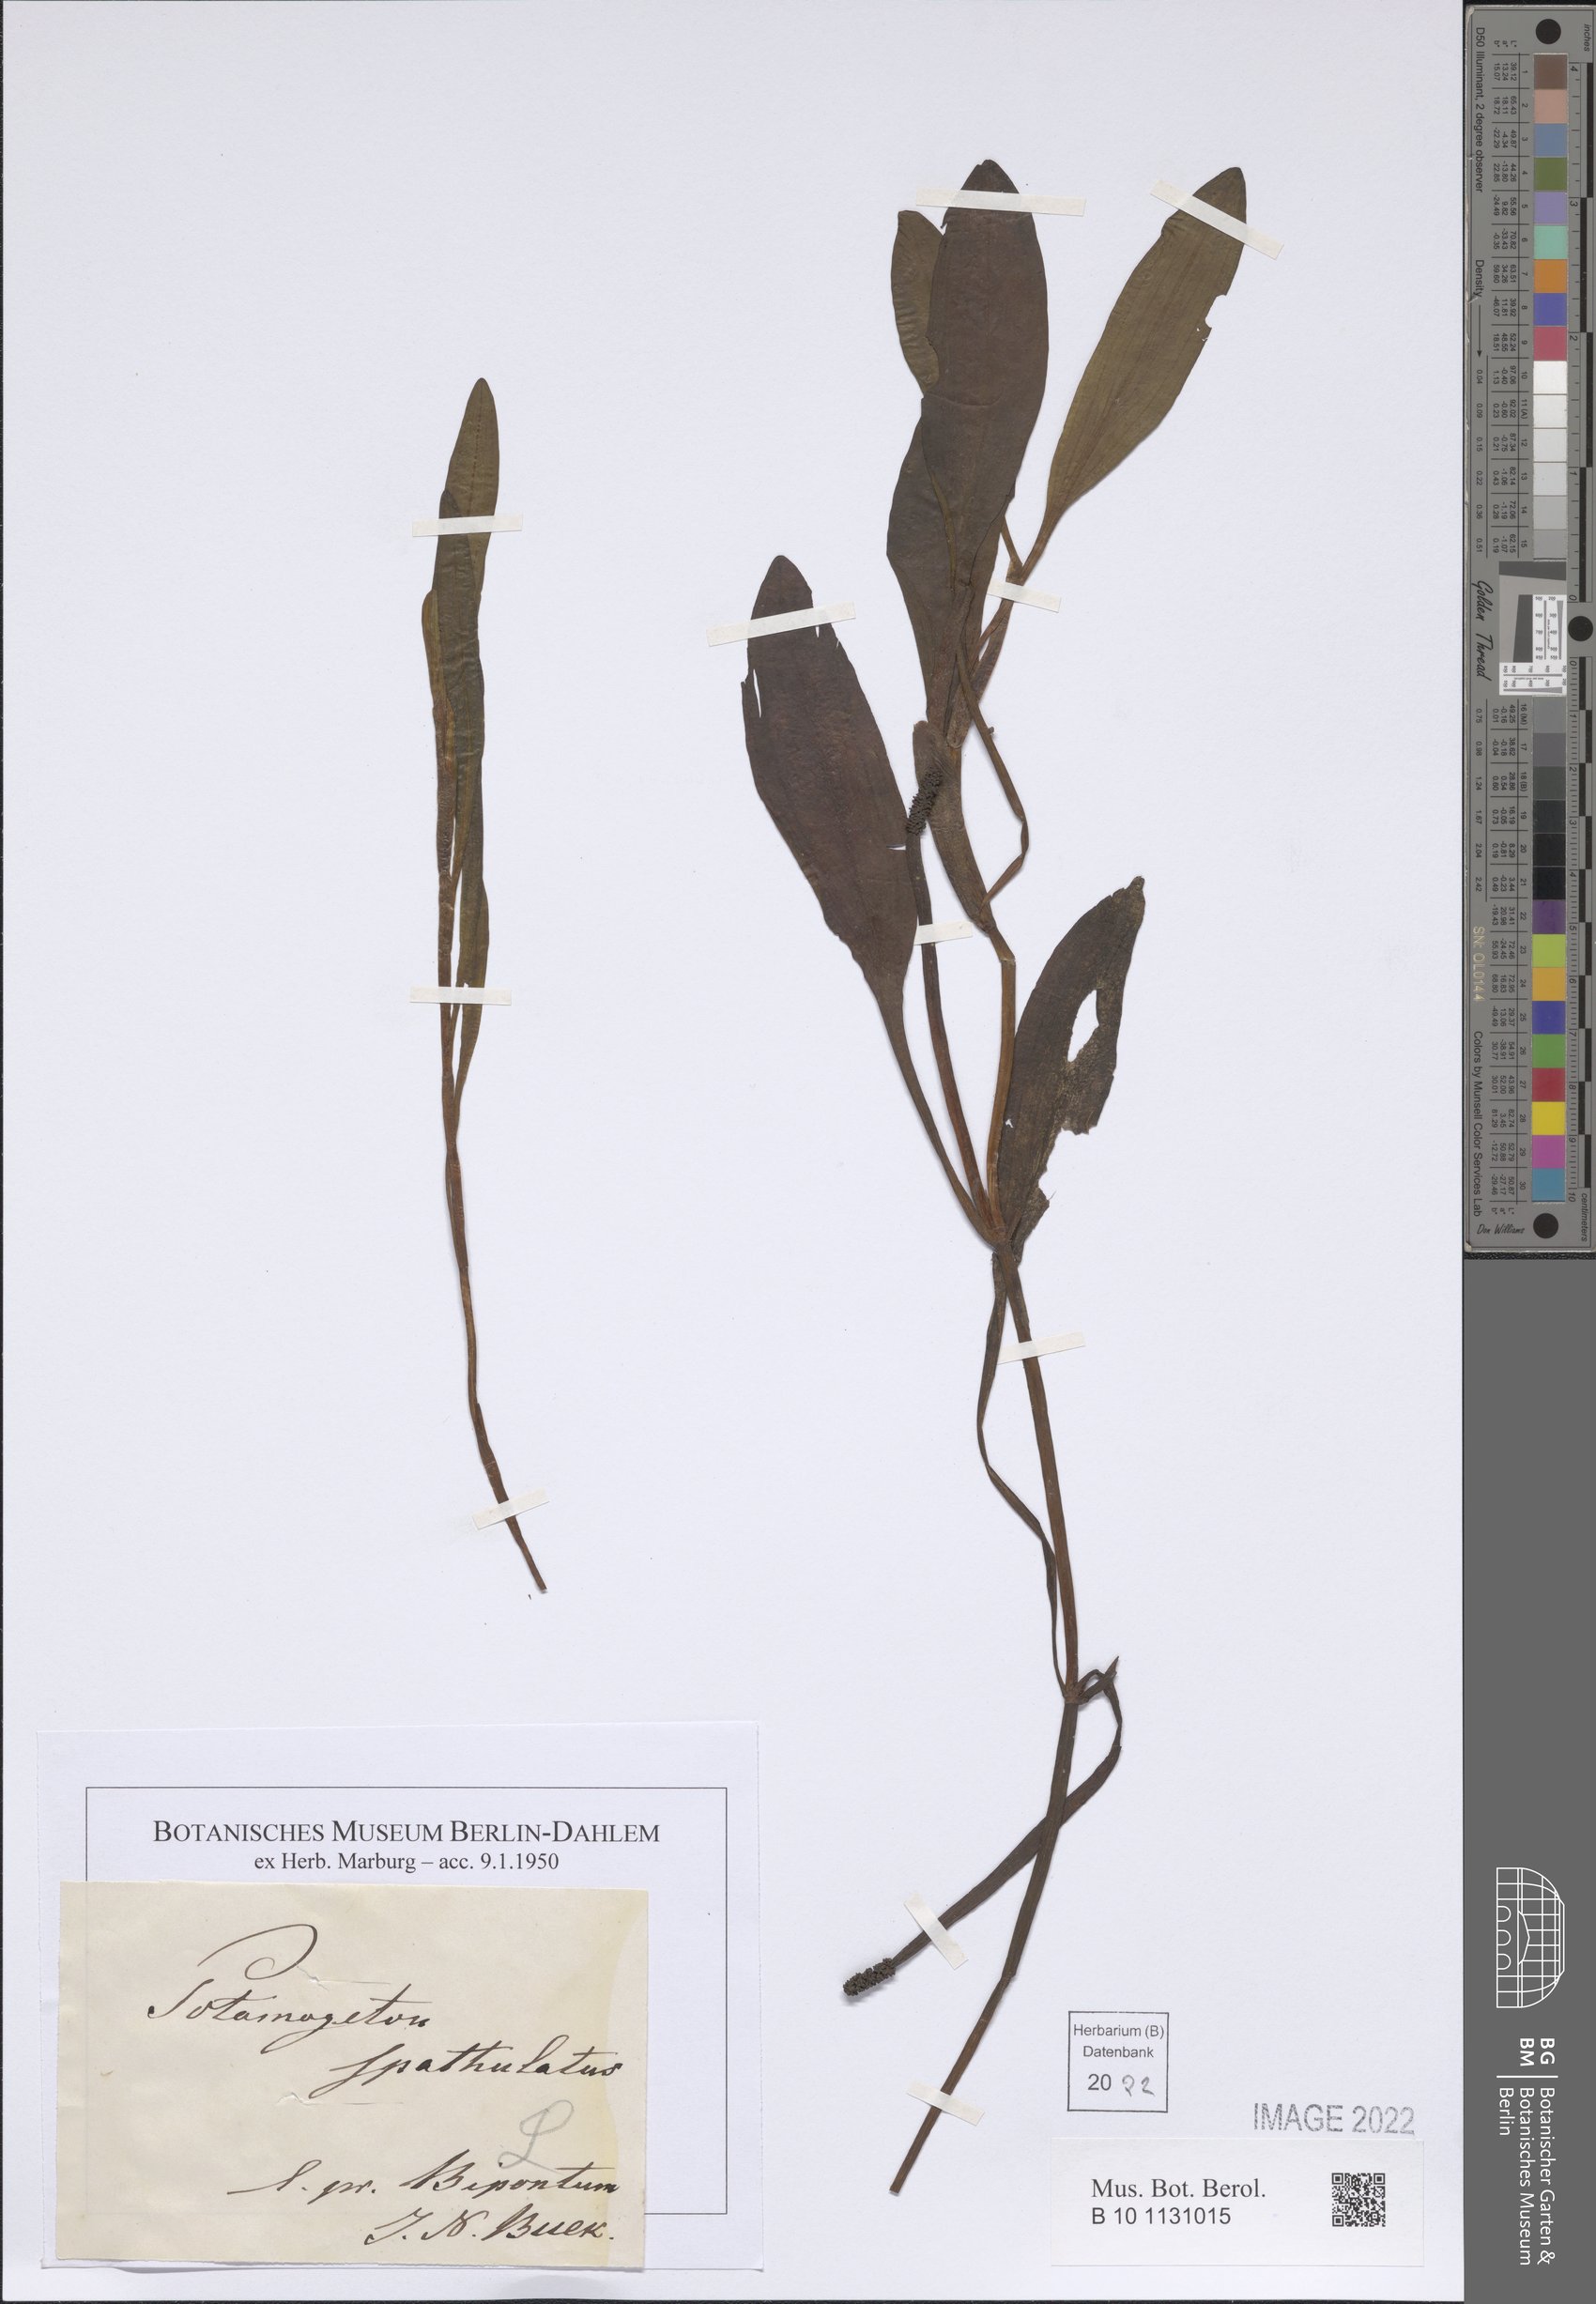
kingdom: Plantae
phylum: Tracheophyta
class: Liliopsida
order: Alismatales
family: Potamogetonaceae
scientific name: Potamogetonaceae
